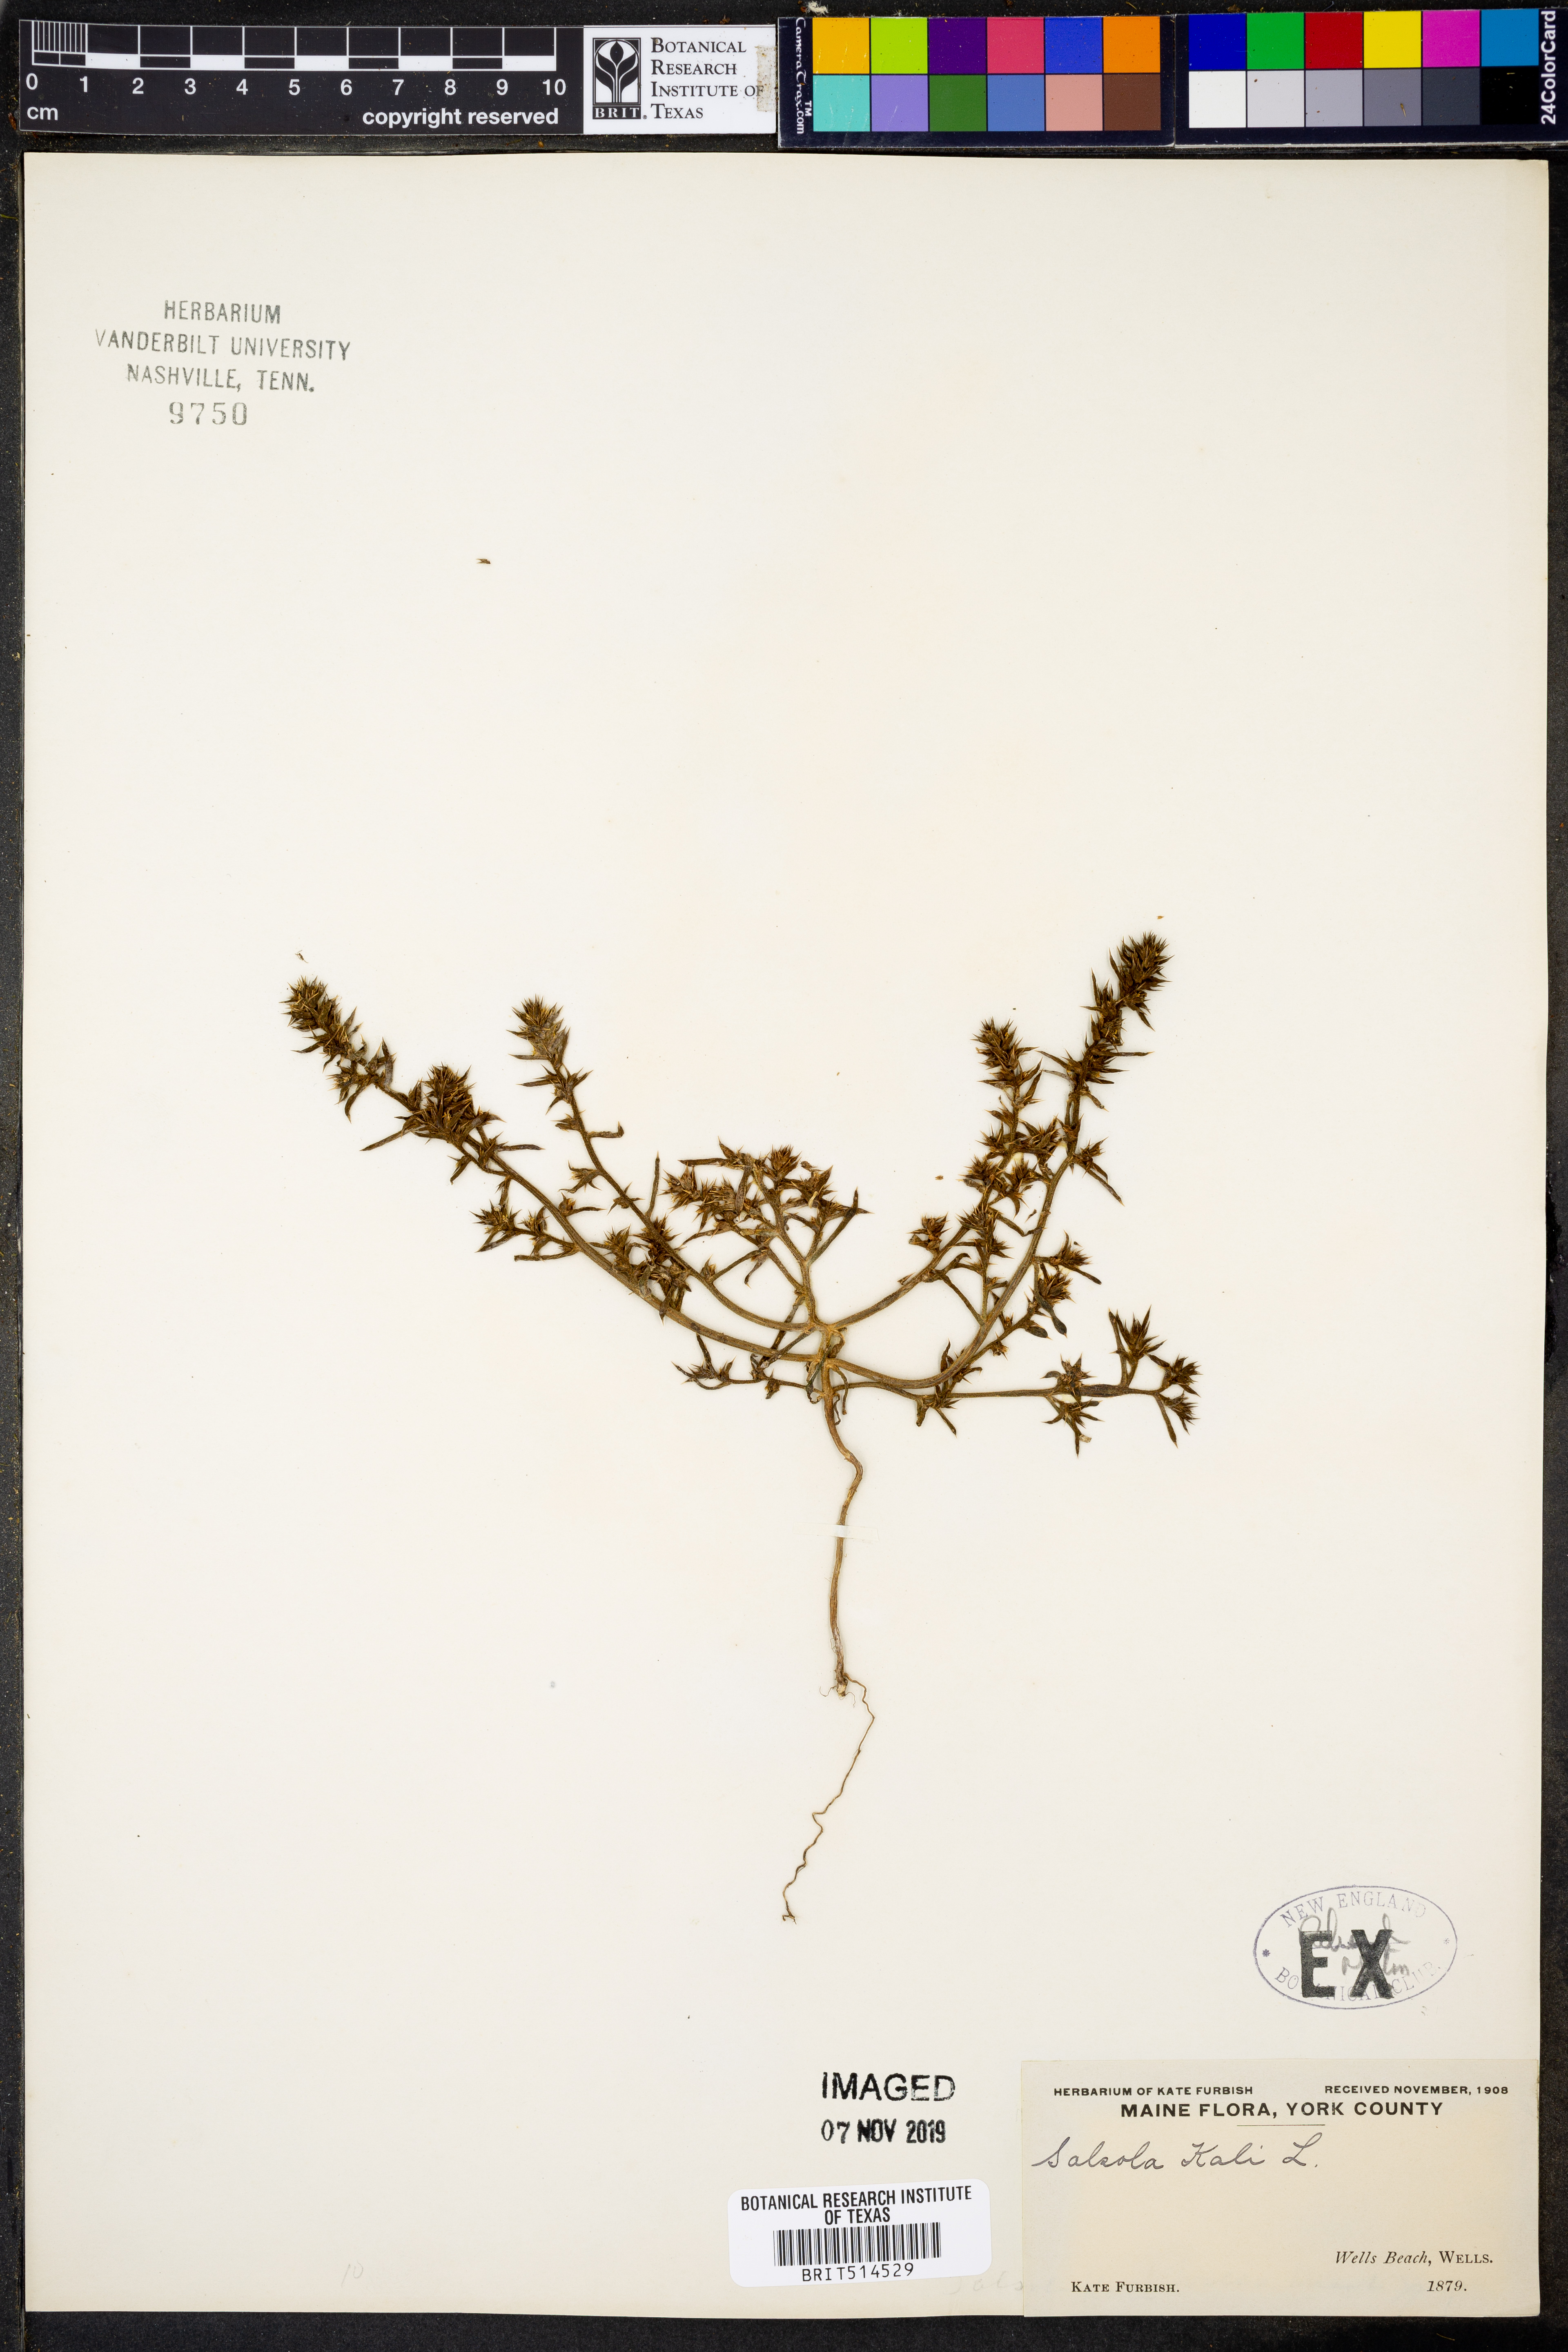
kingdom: Plantae
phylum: Tracheophyta
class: Magnoliopsida
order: Caryophyllales
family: Amaranthaceae
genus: Salsola
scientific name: Salsola kali
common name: Saltwort
